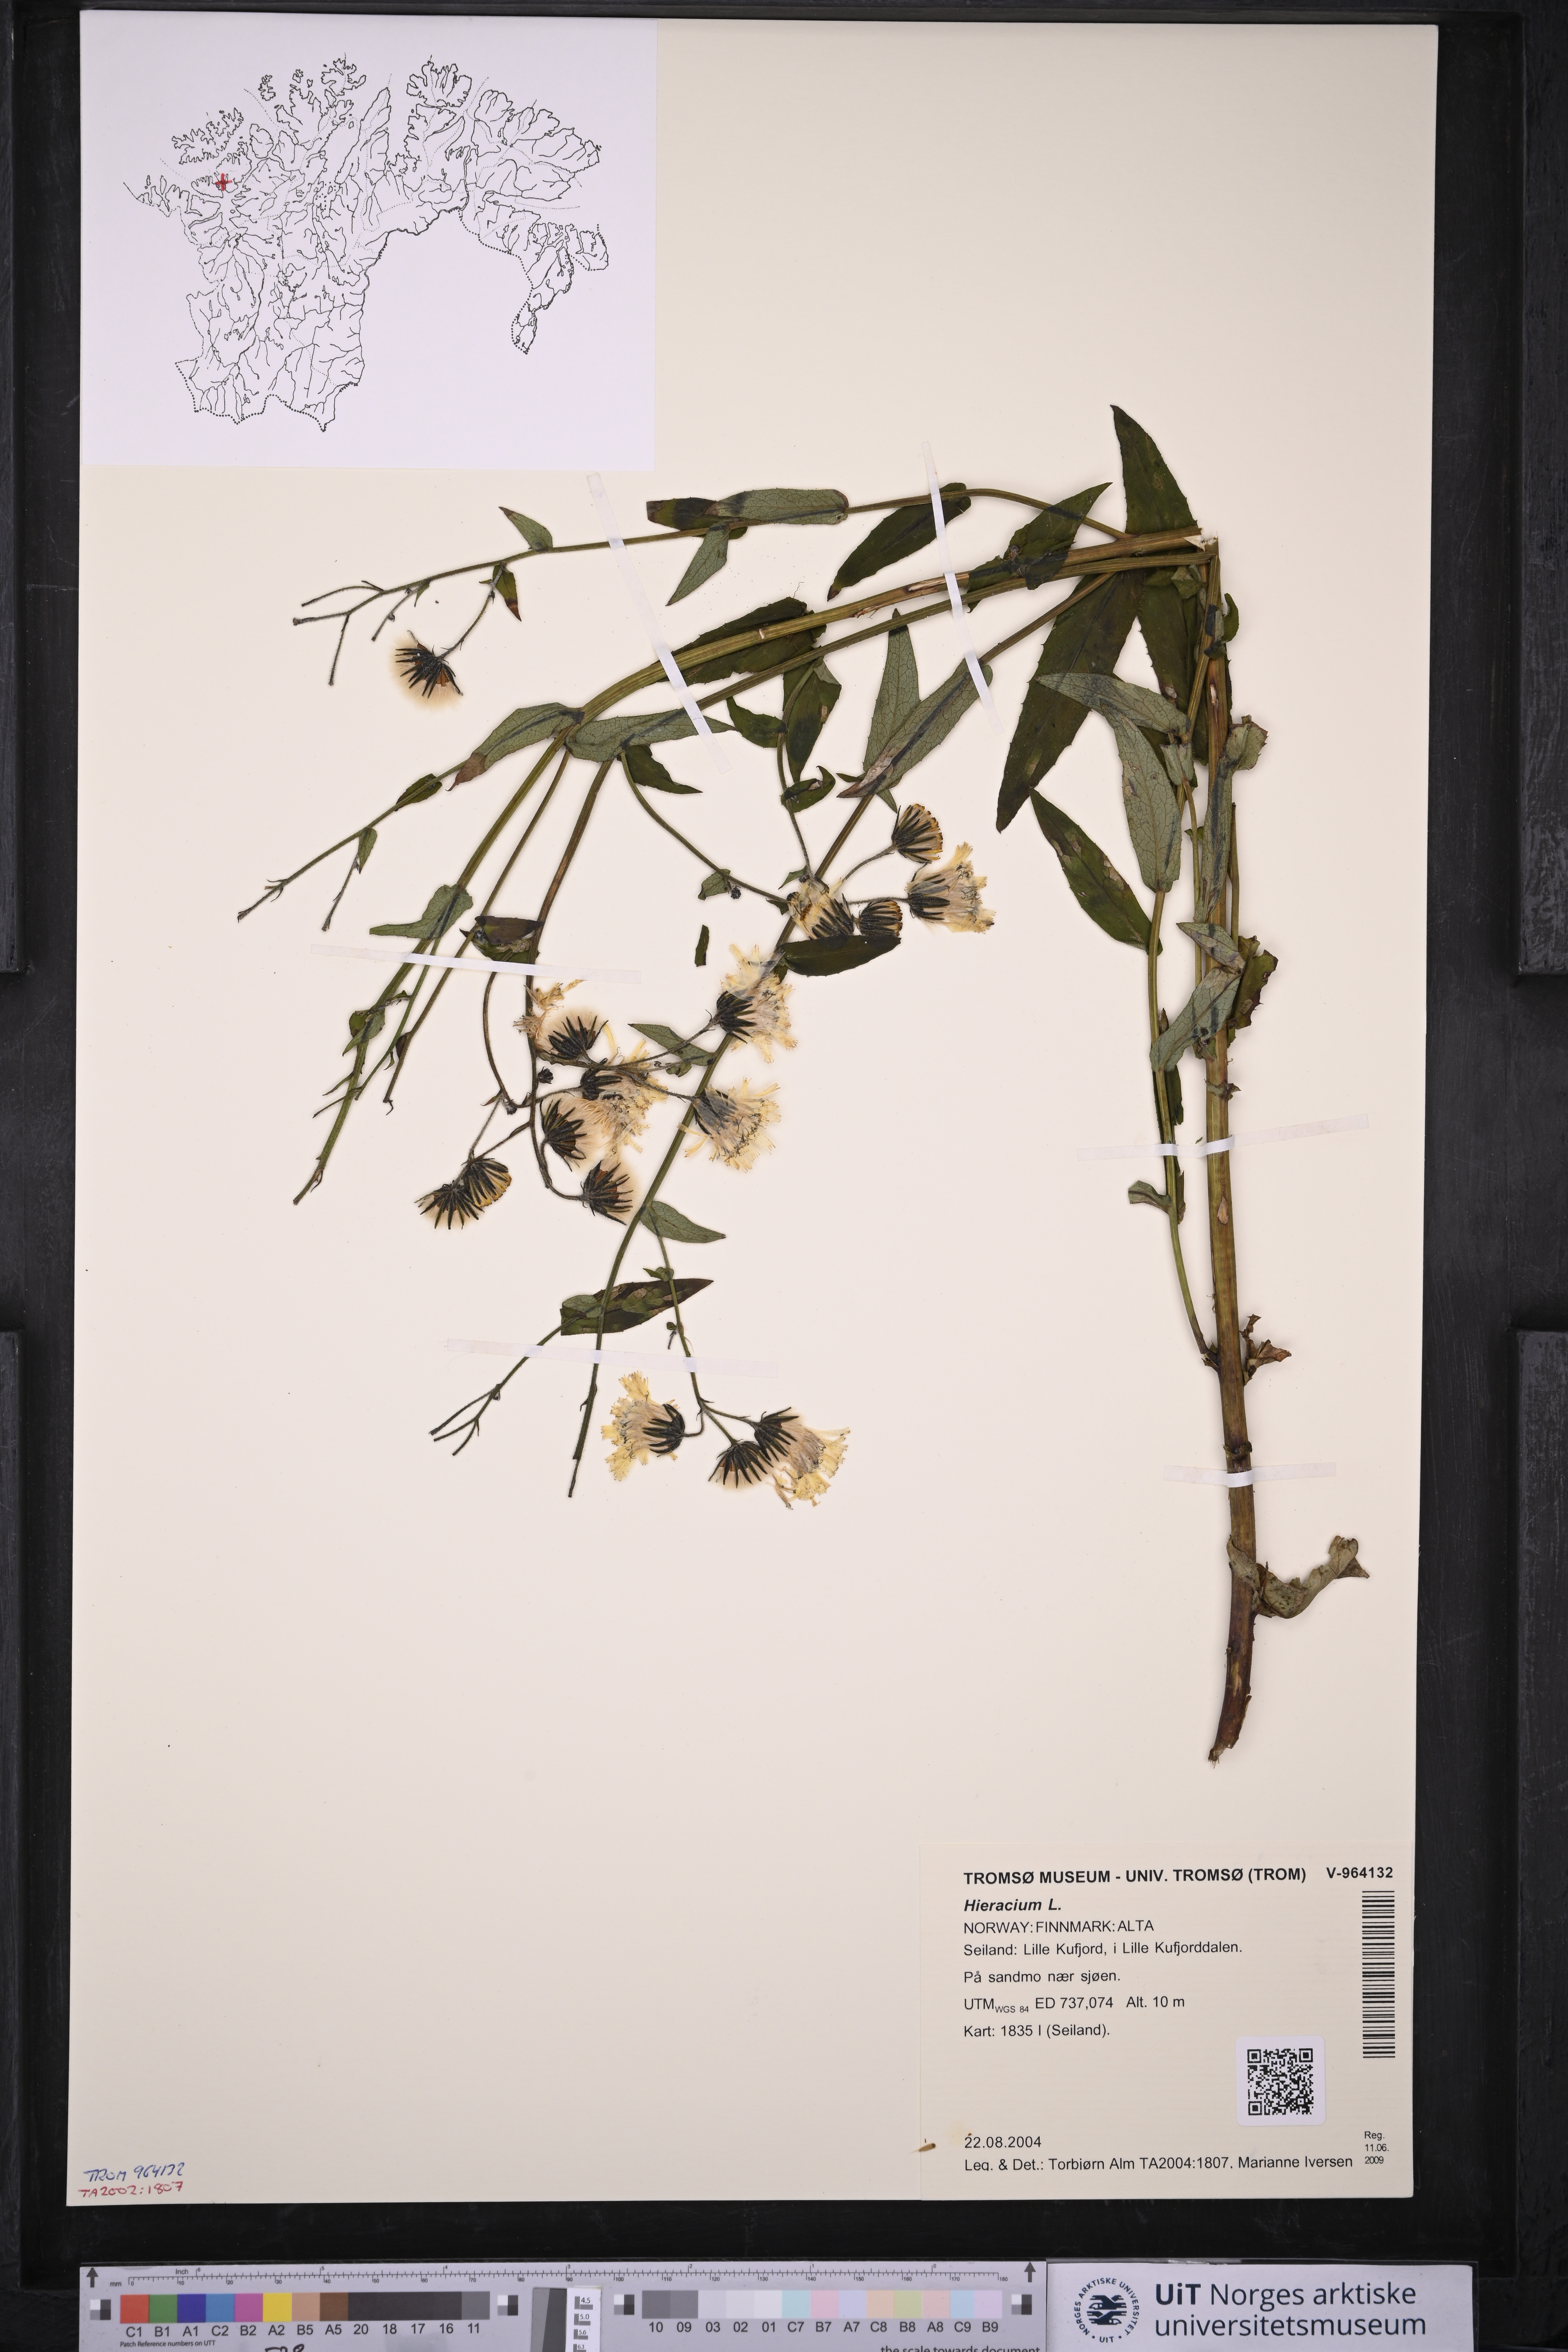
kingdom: Plantae
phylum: Tracheophyta
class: Magnoliopsida
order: Asterales
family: Asteraceae
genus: Hieracium
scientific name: Hieracium
